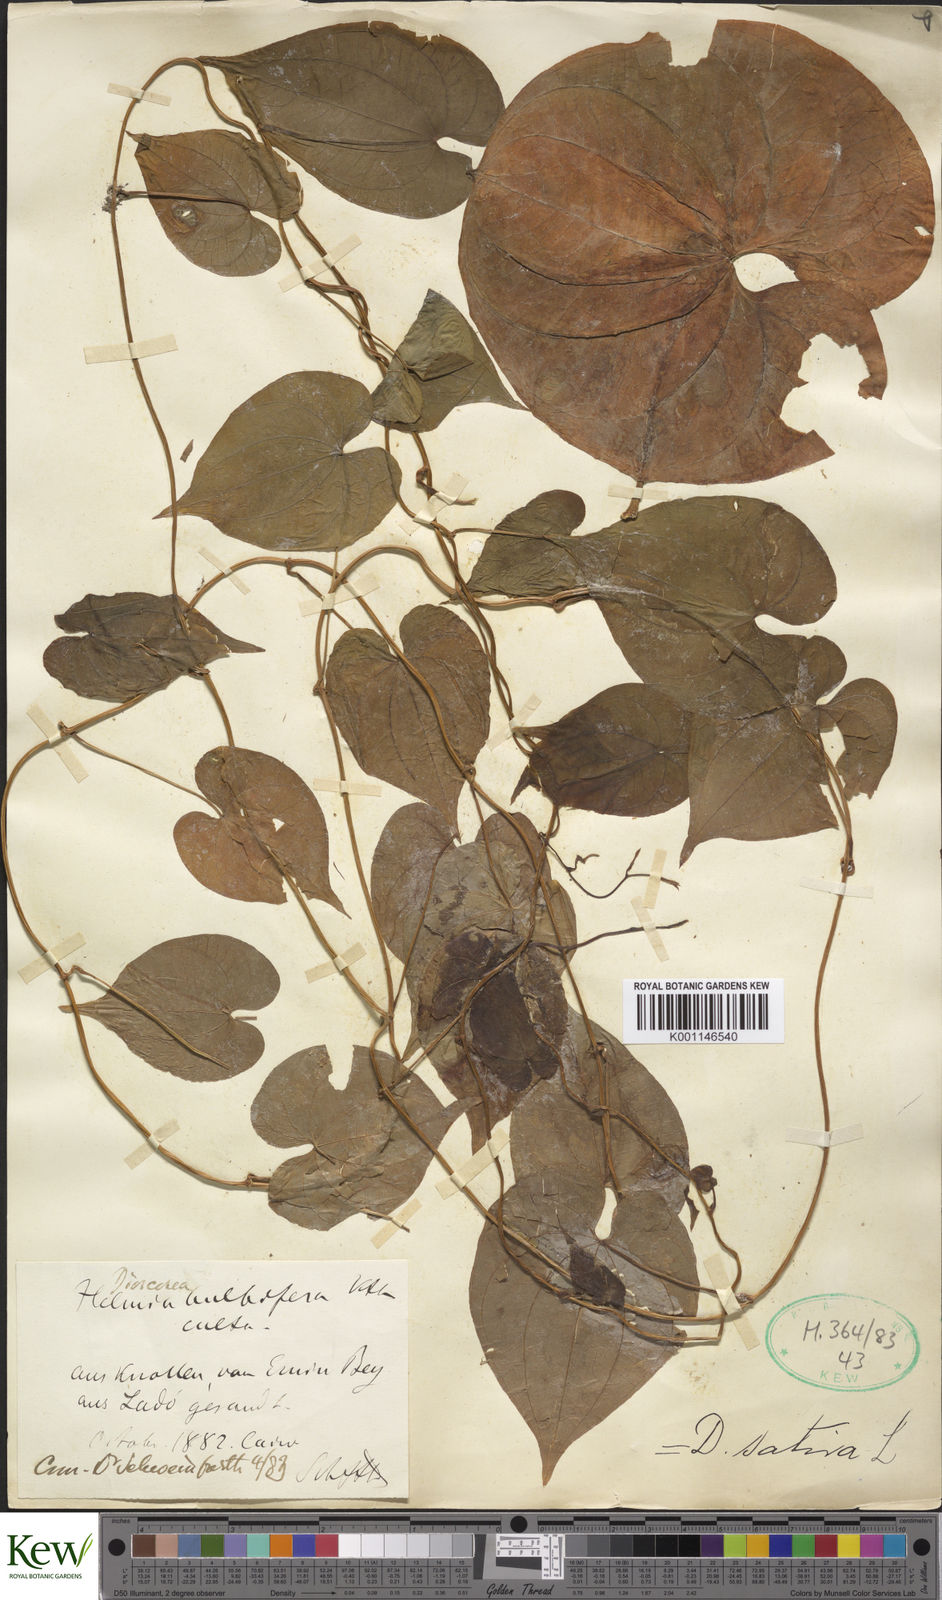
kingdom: Plantae
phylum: Tracheophyta
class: Liliopsida
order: Dioscoreales
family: Dioscoreaceae
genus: Dioscorea
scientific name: Dioscorea bulbifera
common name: Air yam
